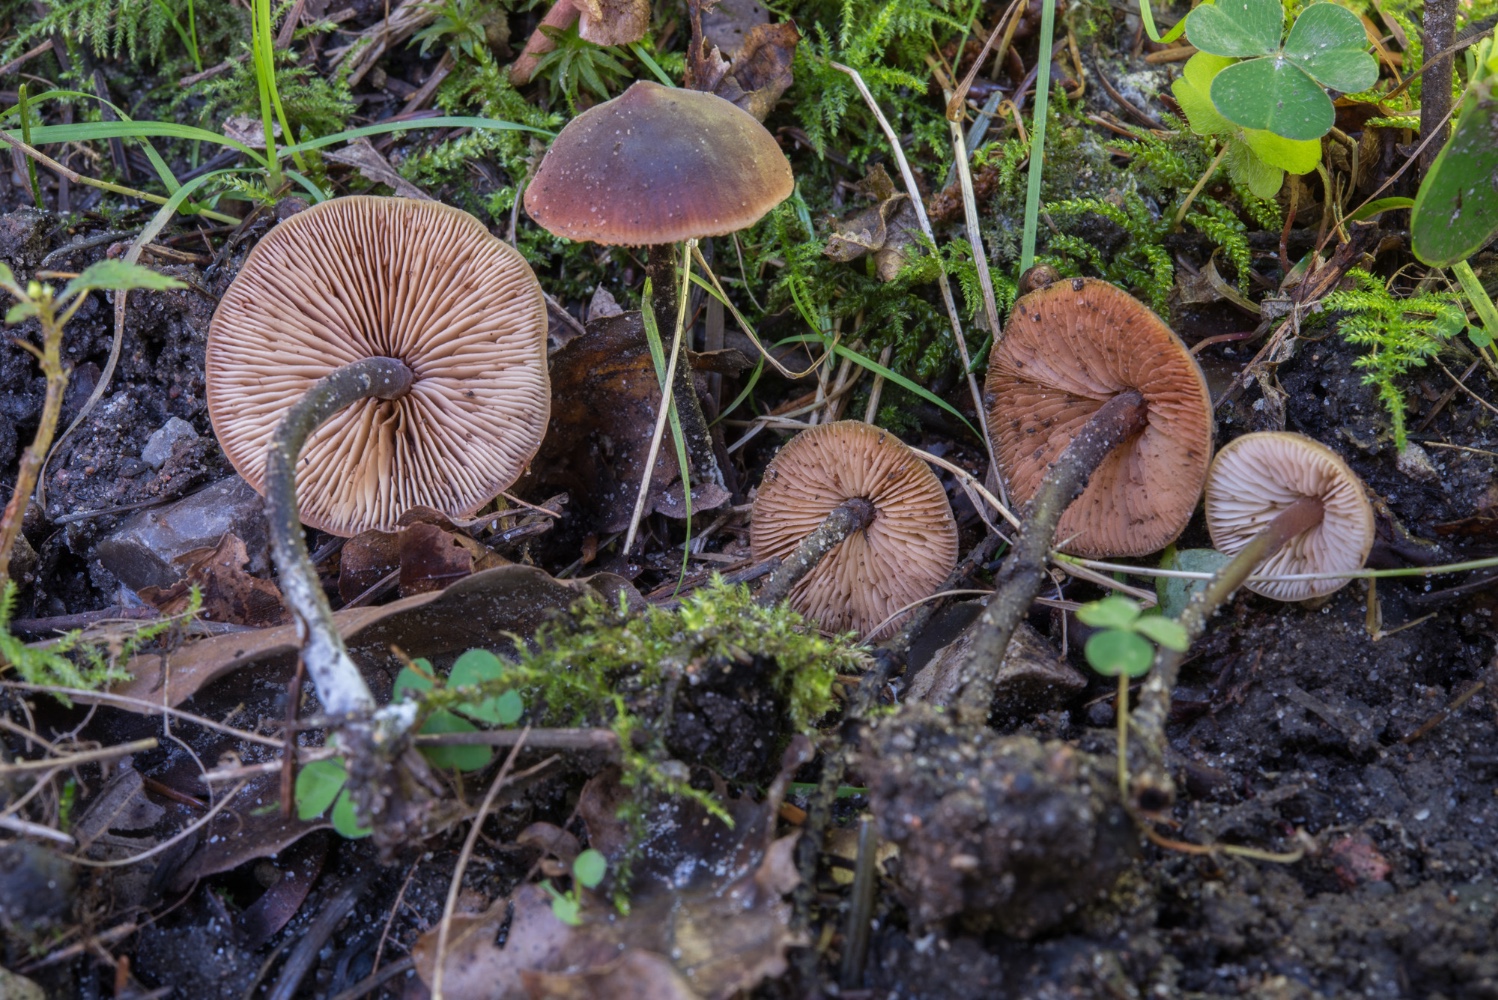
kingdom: Fungi
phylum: Basidiomycota
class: Agaricomycetes
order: Agaricales
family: Macrocystidiaceae
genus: Macrocystidia
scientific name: Macrocystidia cucumis
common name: agurkehat
